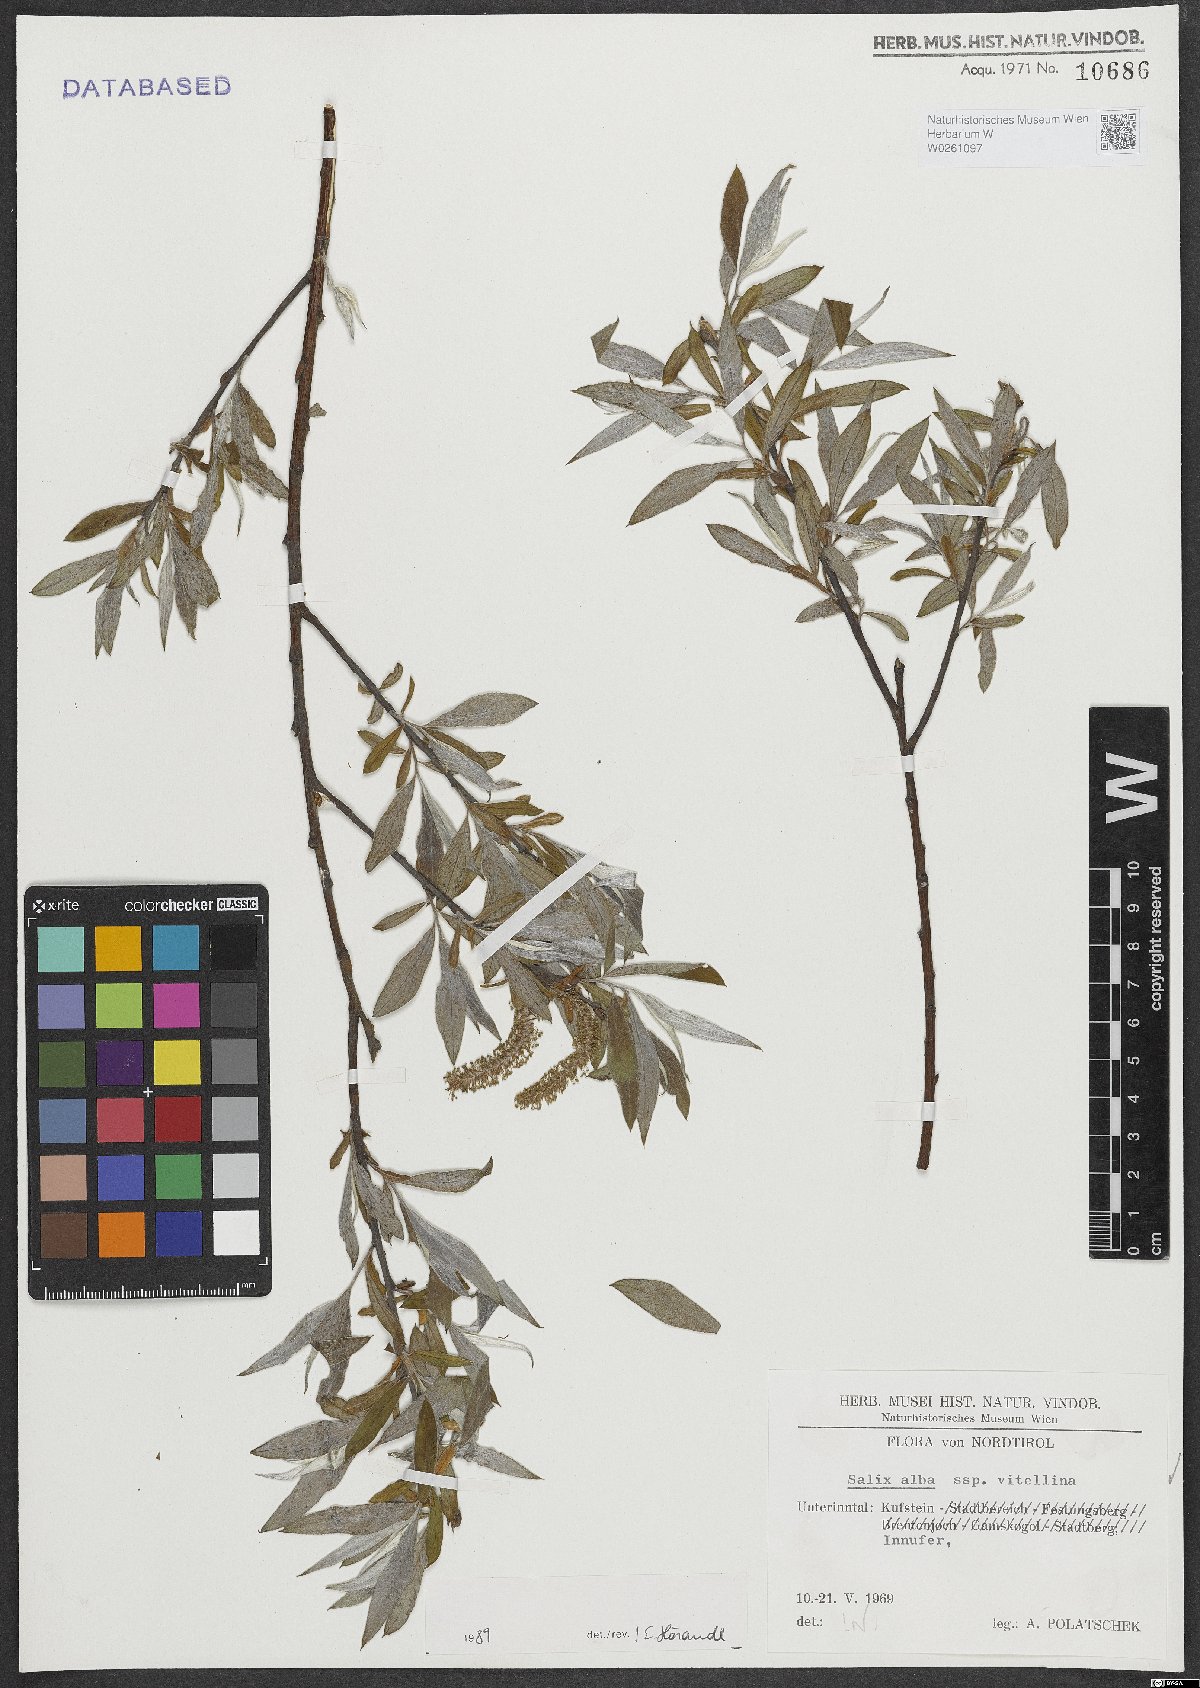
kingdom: Plantae
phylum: Tracheophyta
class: Magnoliopsida
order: Malpighiales
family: Salicaceae
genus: Salix
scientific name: Salix alba
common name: White willow
